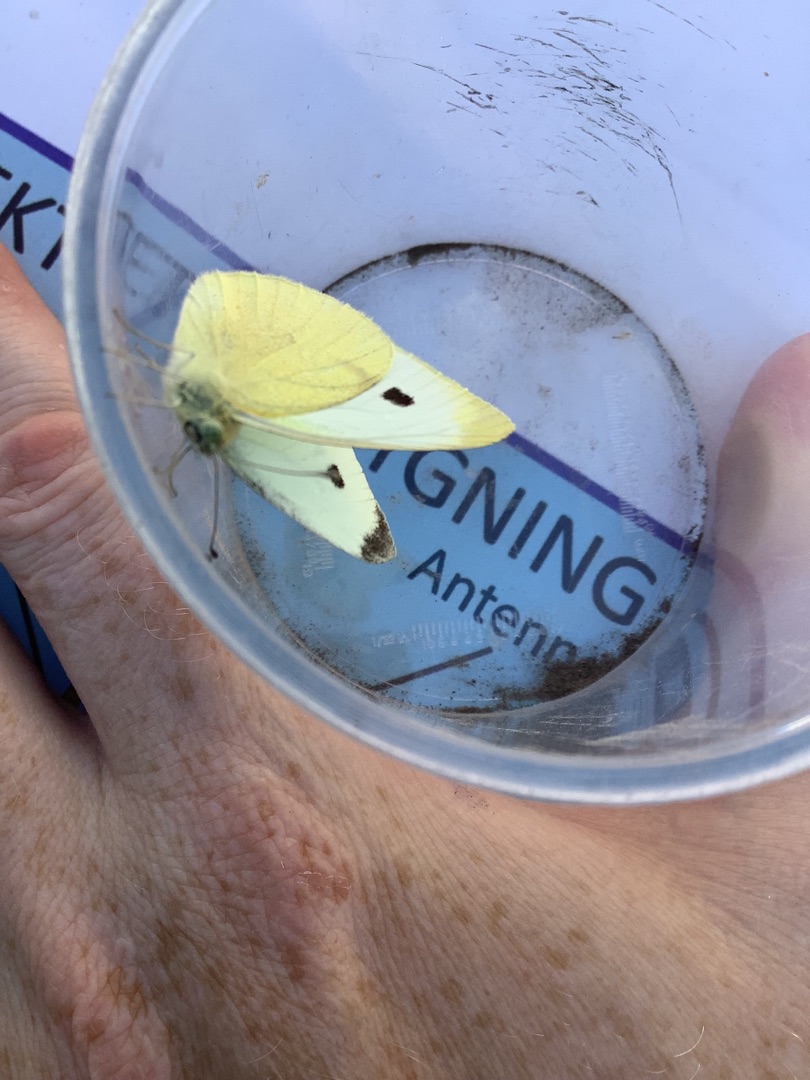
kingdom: Animalia
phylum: Arthropoda
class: Insecta
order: Lepidoptera
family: Pieridae
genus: Pieris
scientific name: Pieris brassicae
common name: Stor kålsommerfugl
